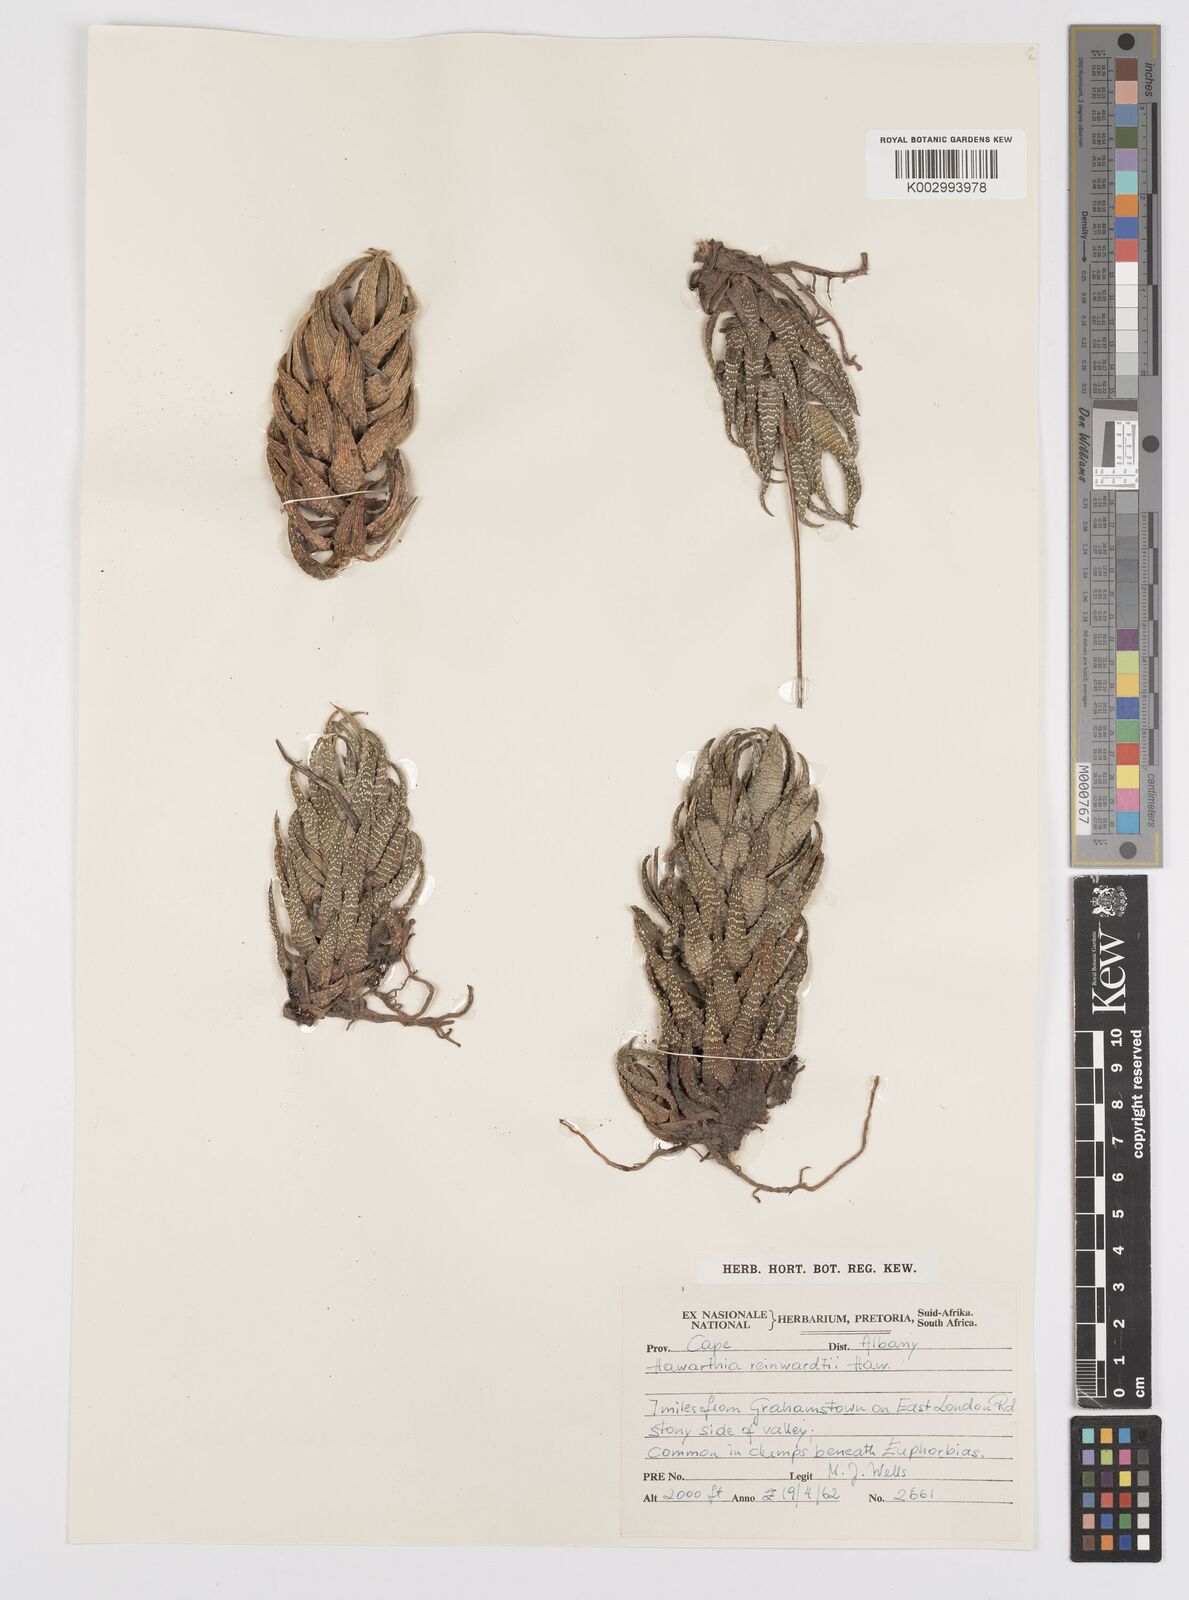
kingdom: Plantae
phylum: Tracheophyta
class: Liliopsida
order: Asparagales
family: Asphodelaceae
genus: Haworthia
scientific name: Haworthia
